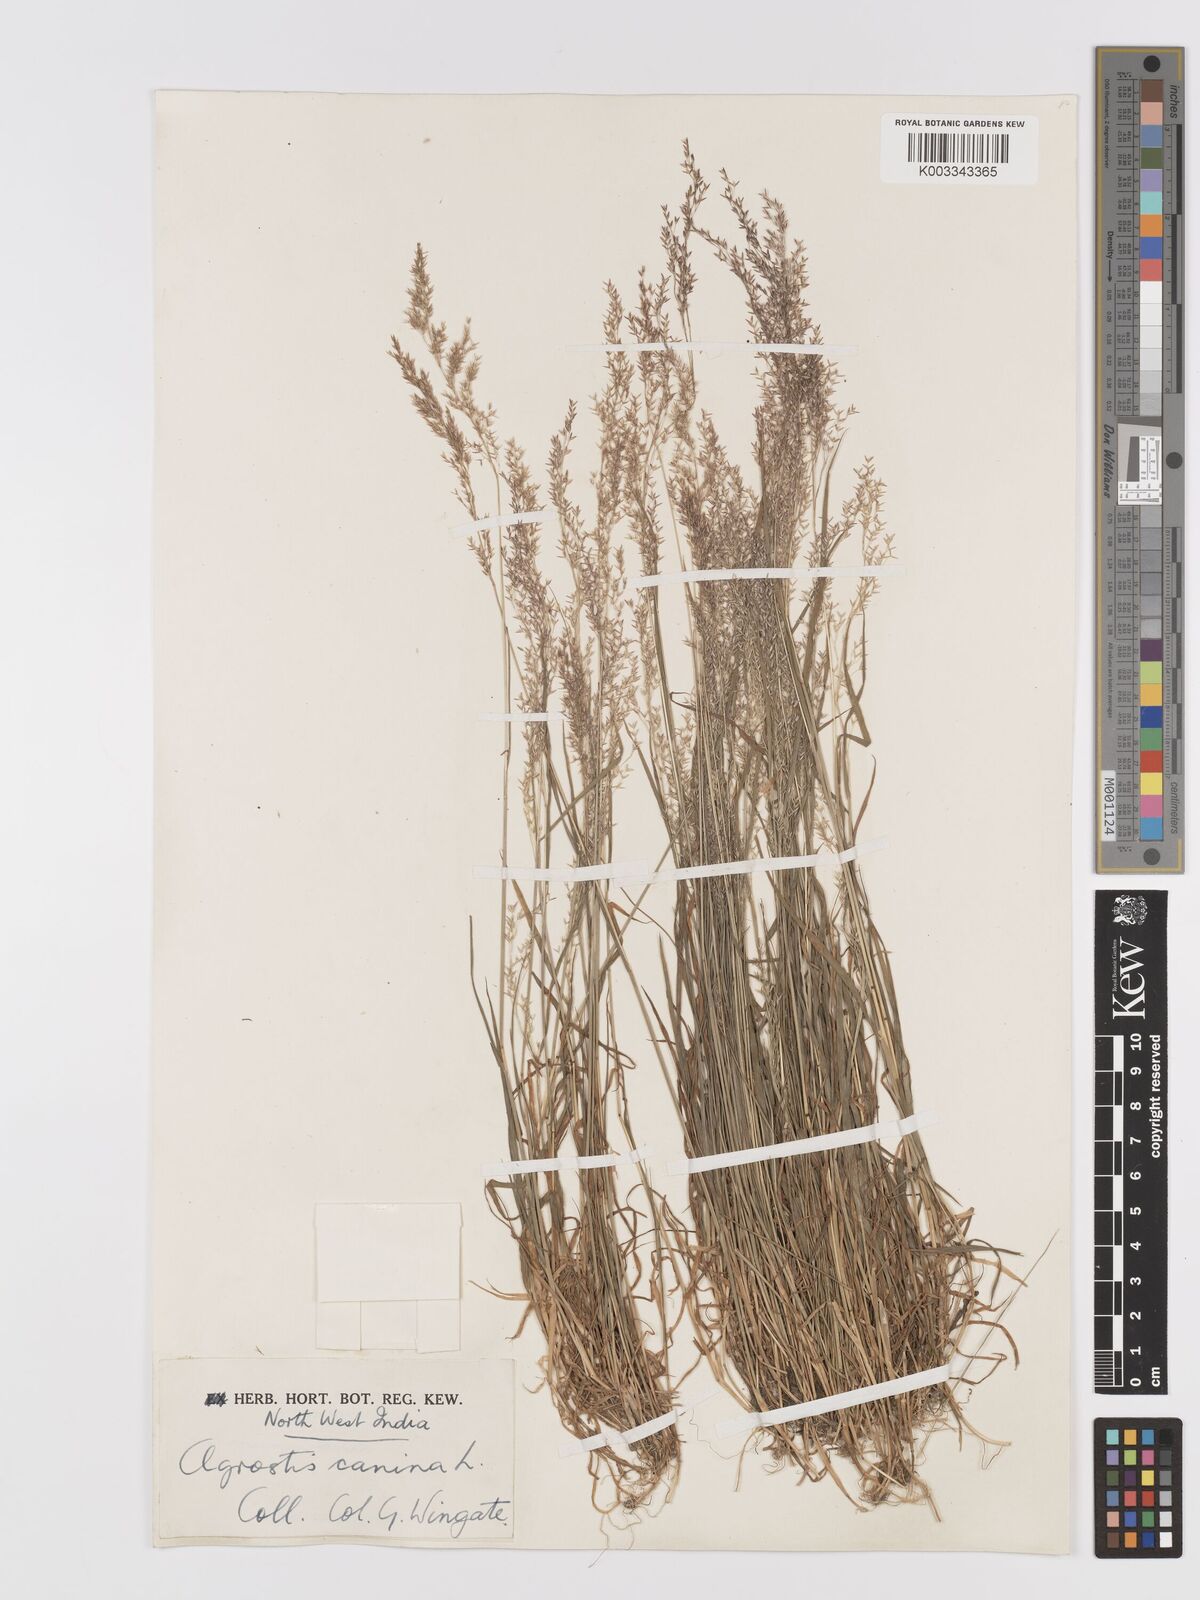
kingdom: Plantae
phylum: Tracheophyta
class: Liliopsida
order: Poales
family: Poaceae
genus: Agrostis
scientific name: Agrostis
